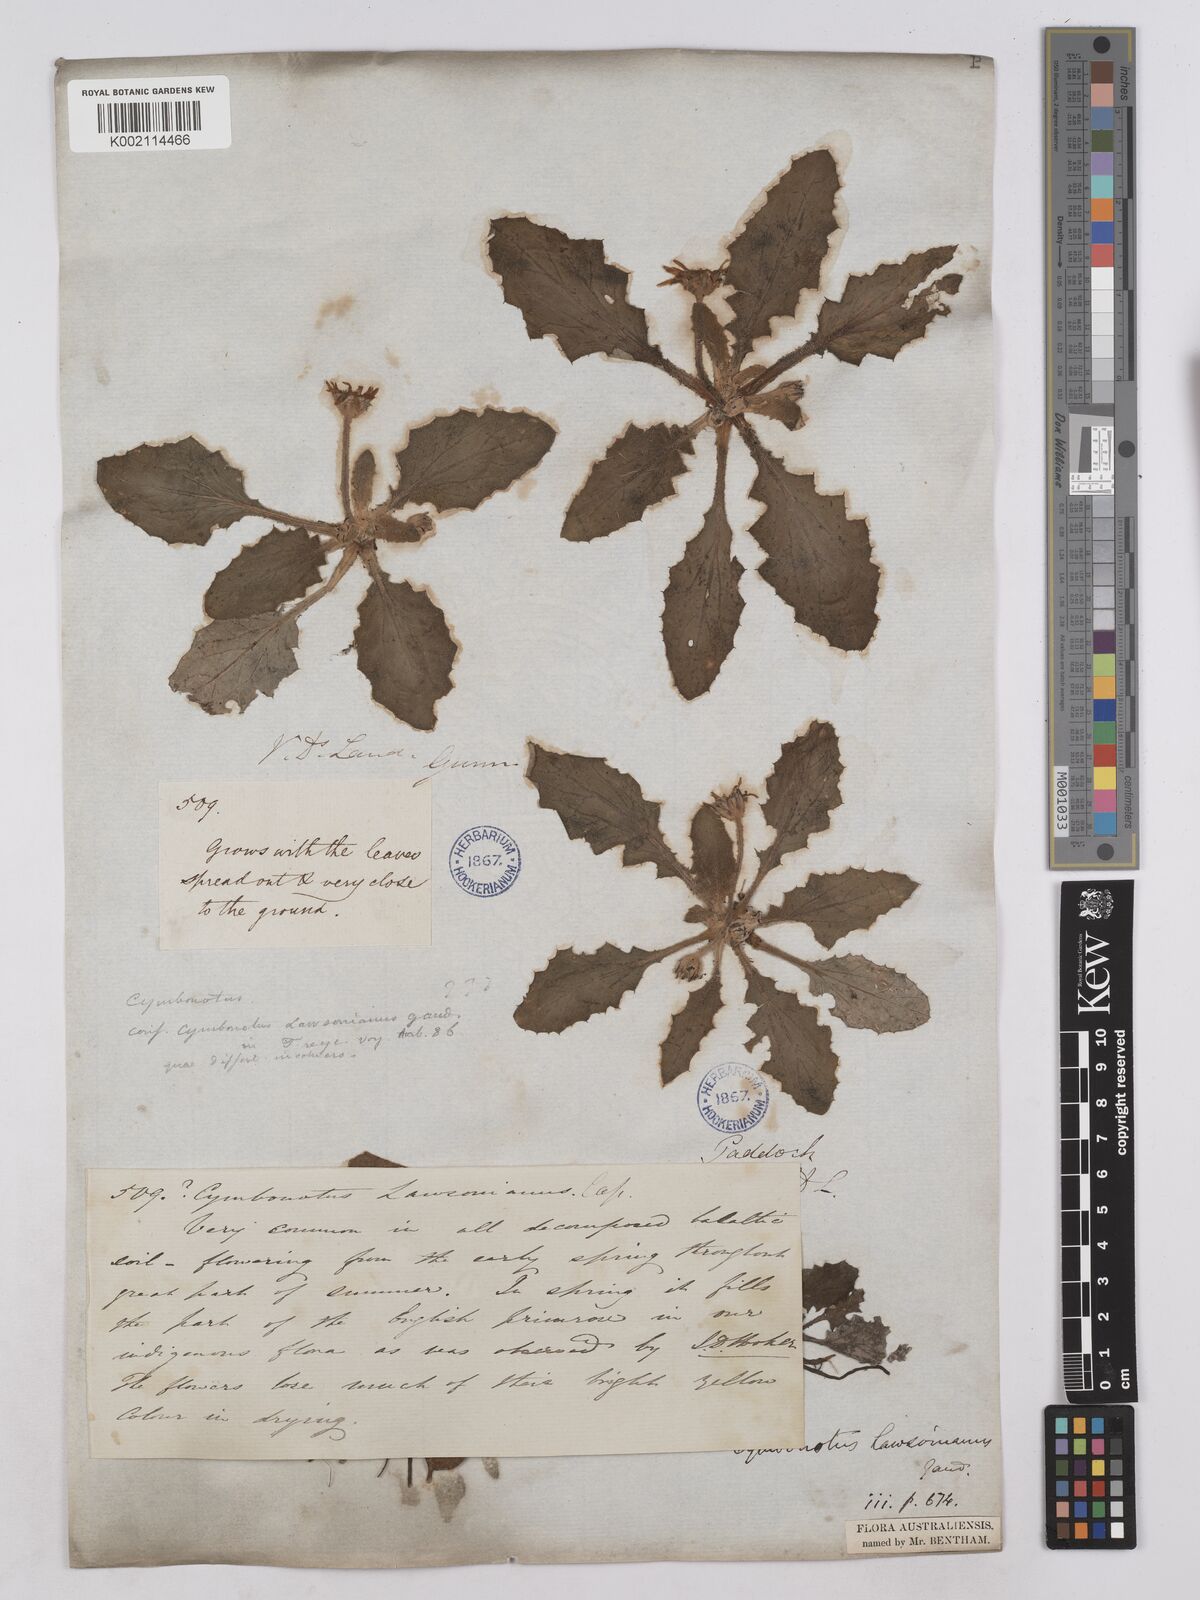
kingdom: Plantae
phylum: Tracheophyta
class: Magnoliopsida
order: Asterales
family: Asteraceae
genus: Cymbonotus
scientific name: Cymbonotus lawsonianus
